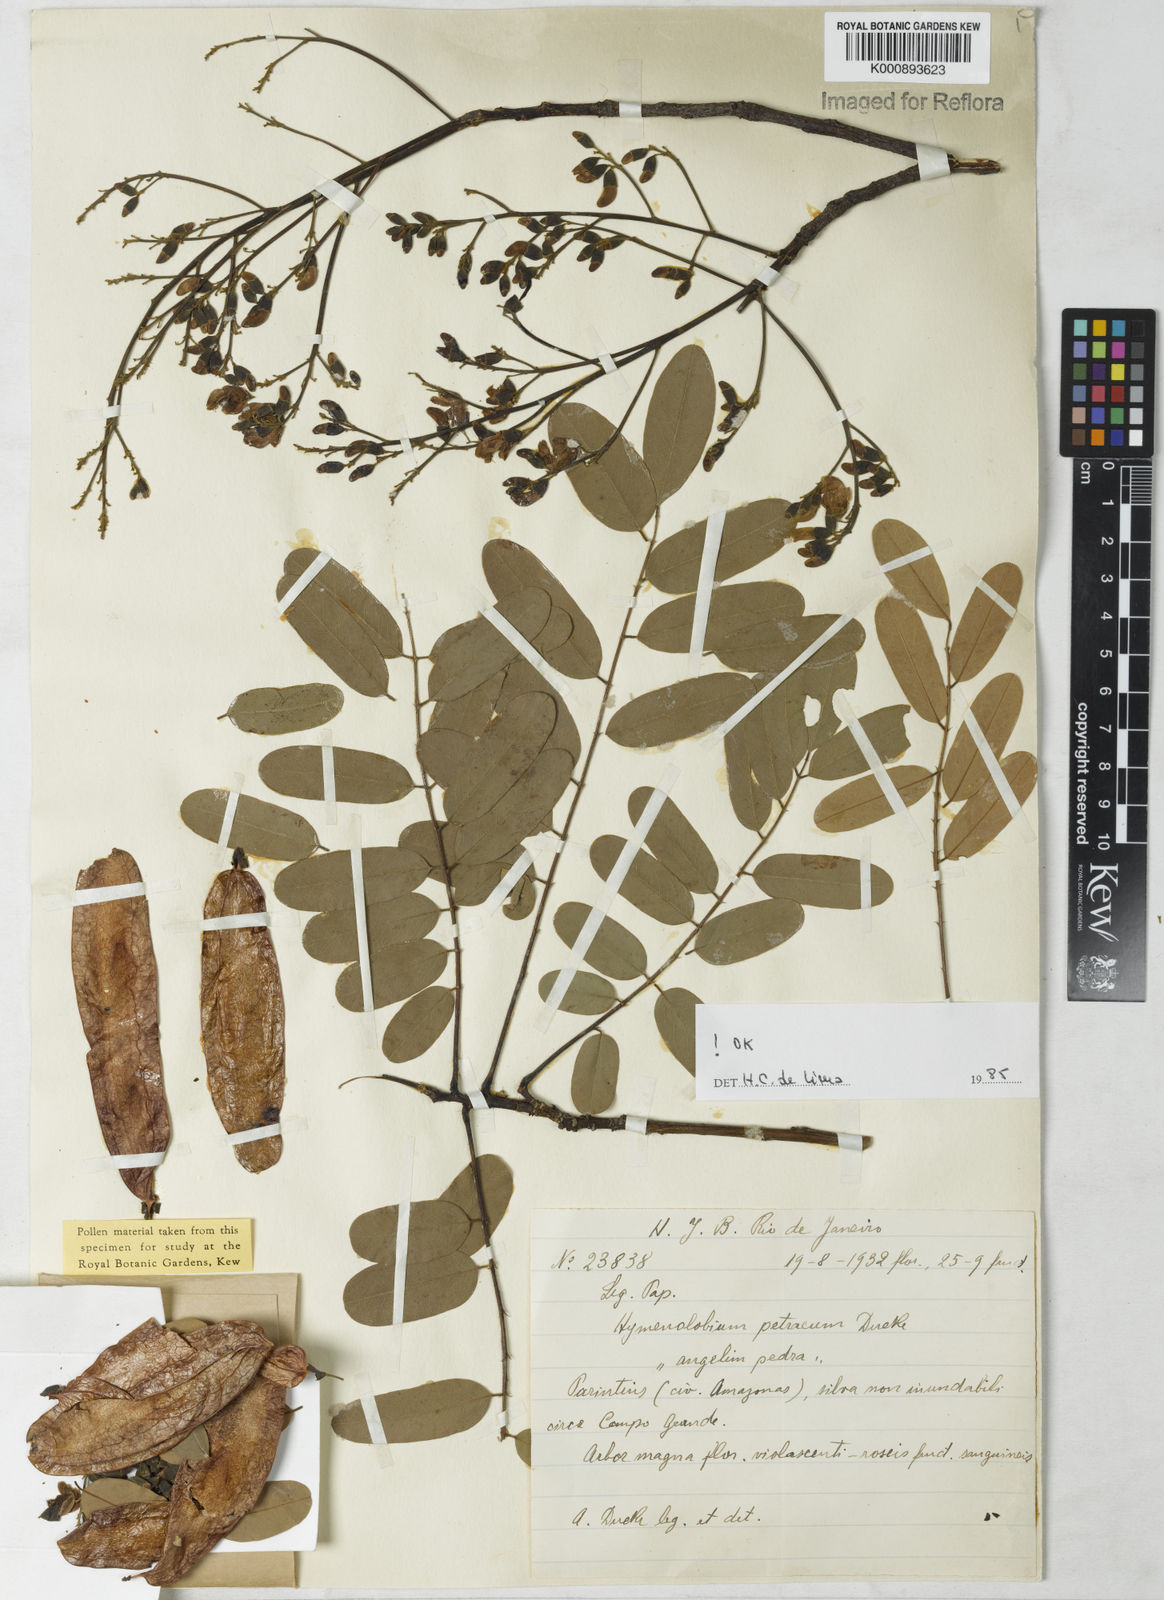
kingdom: Plantae
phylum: Tracheophyta
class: Magnoliopsida
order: Fabales
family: Fabaceae
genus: Hymenolobium
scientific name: Hymenolobium petraeum
